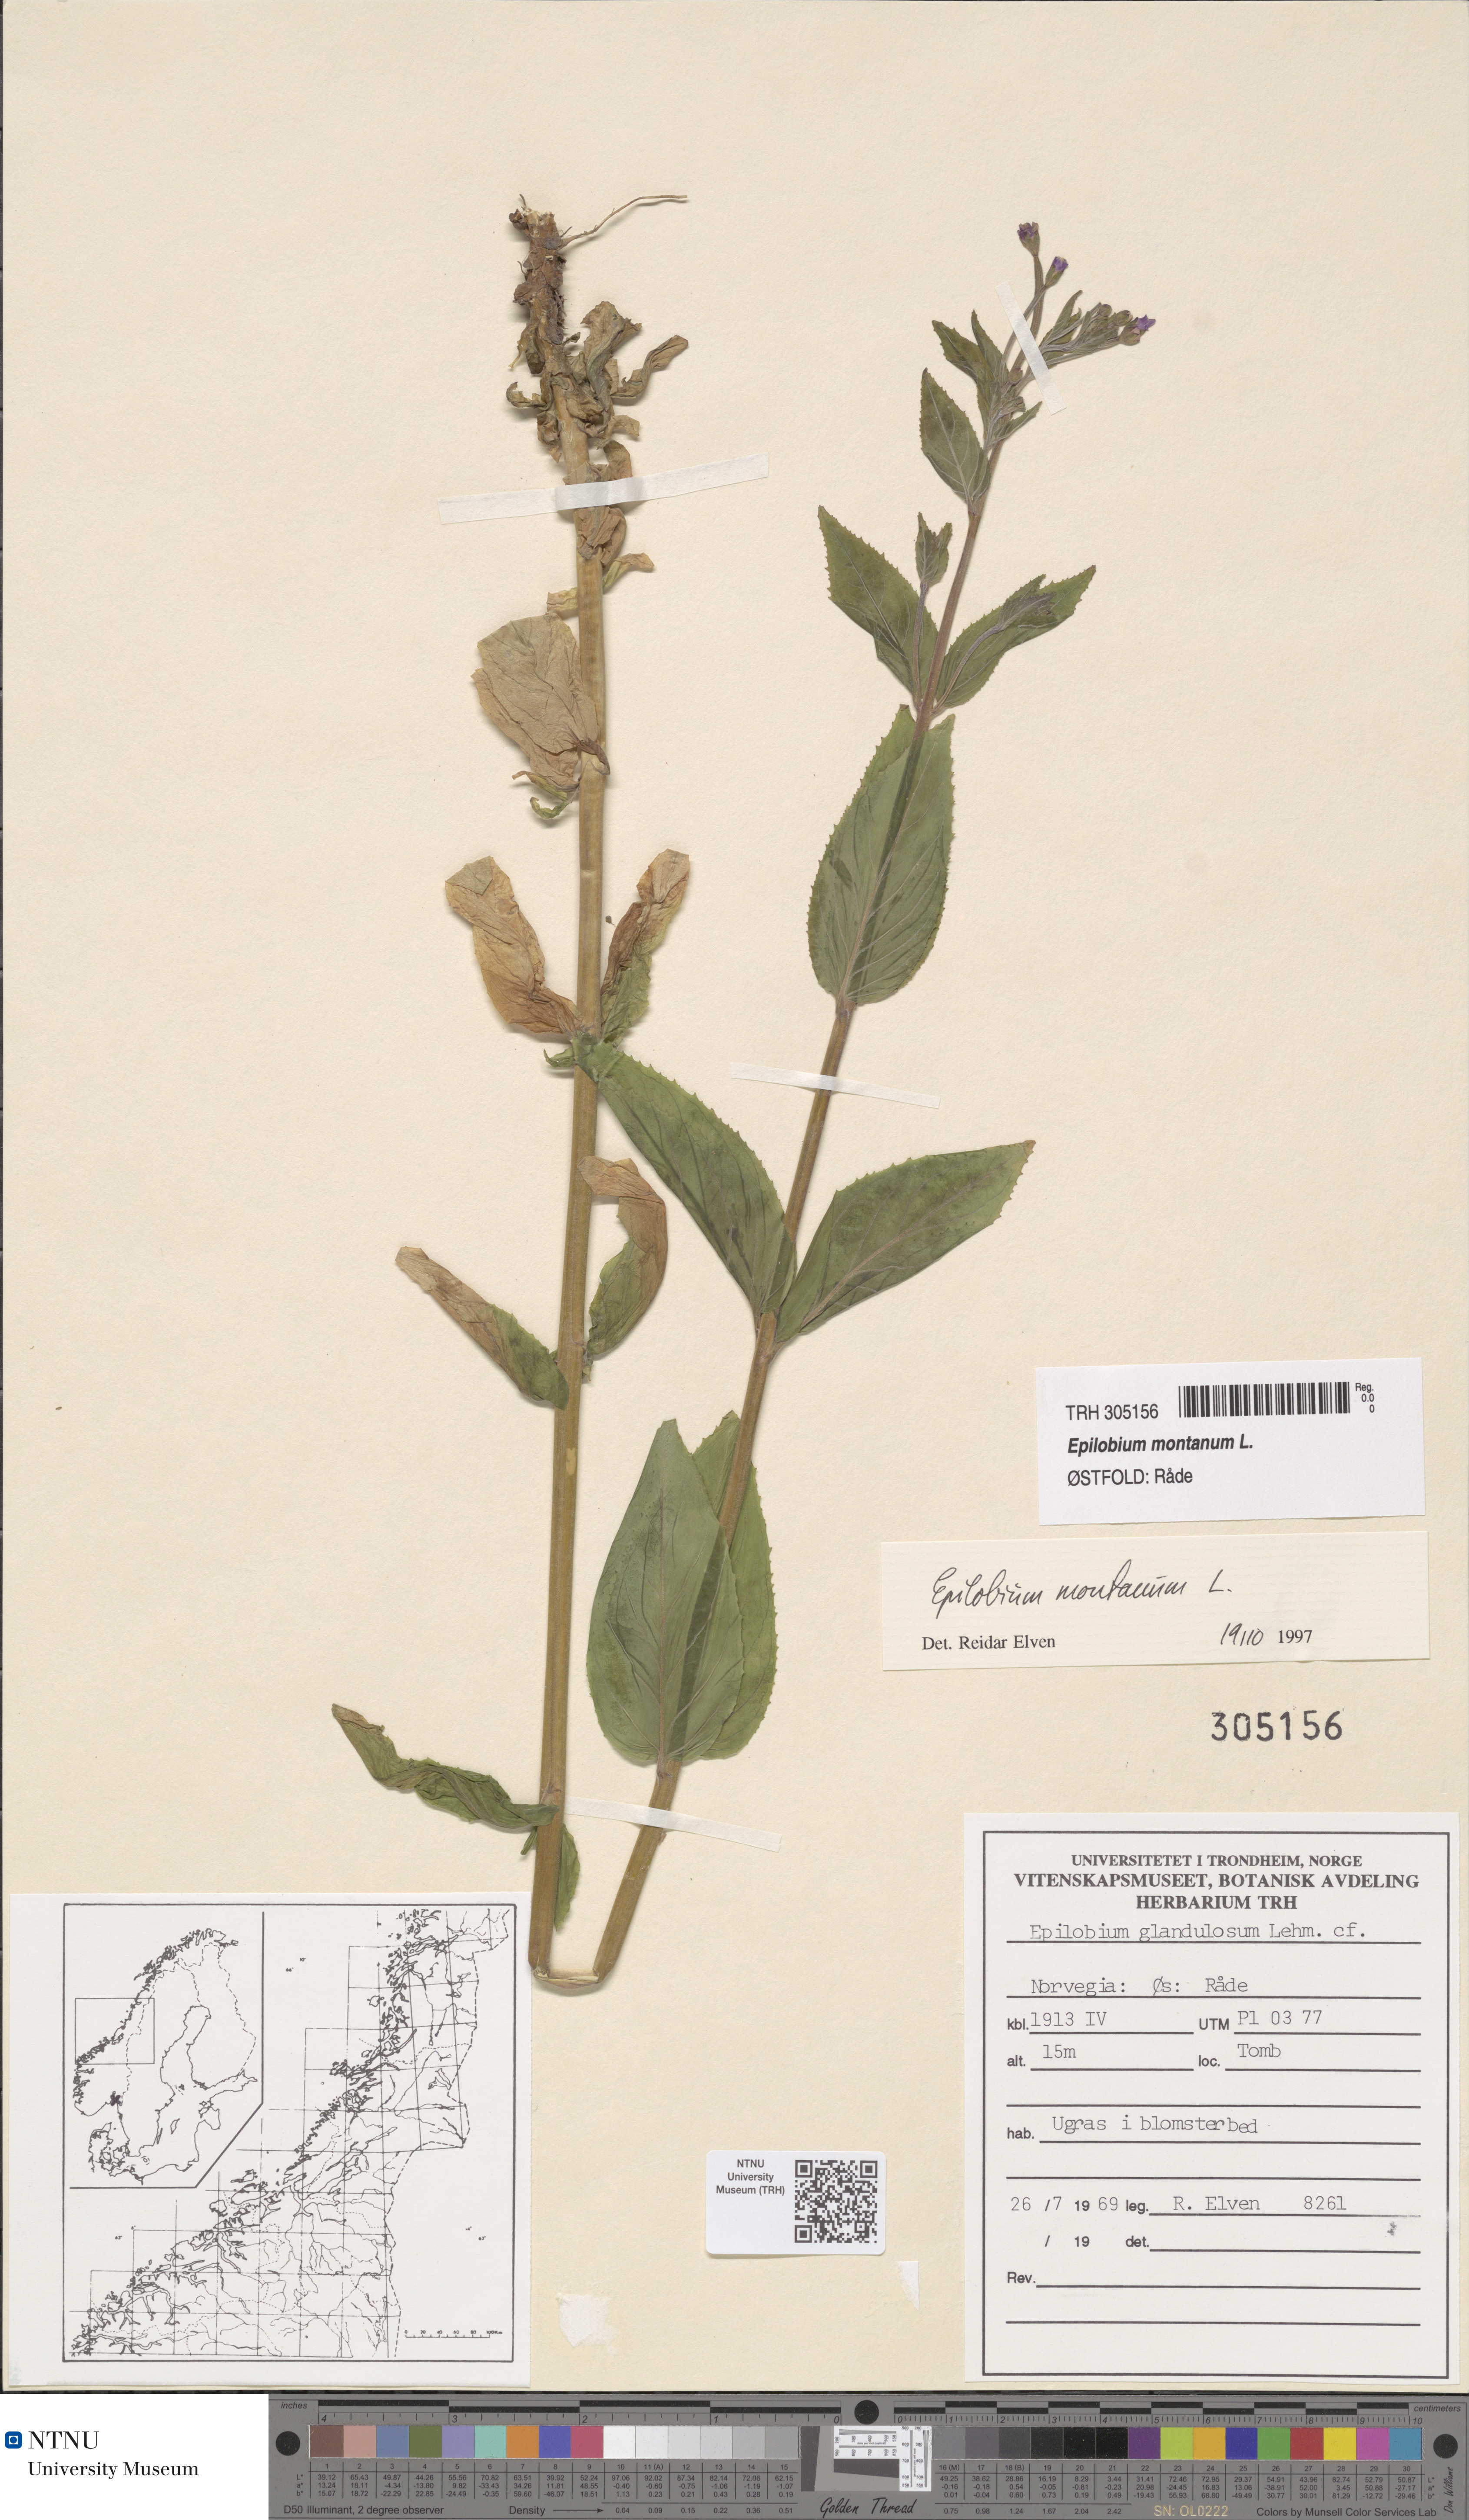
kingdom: Plantae
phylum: Tracheophyta
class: Magnoliopsida
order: Myrtales
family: Onagraceae
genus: Epilobium
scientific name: Epilobium montanum
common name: Broad-leaved willowherb
